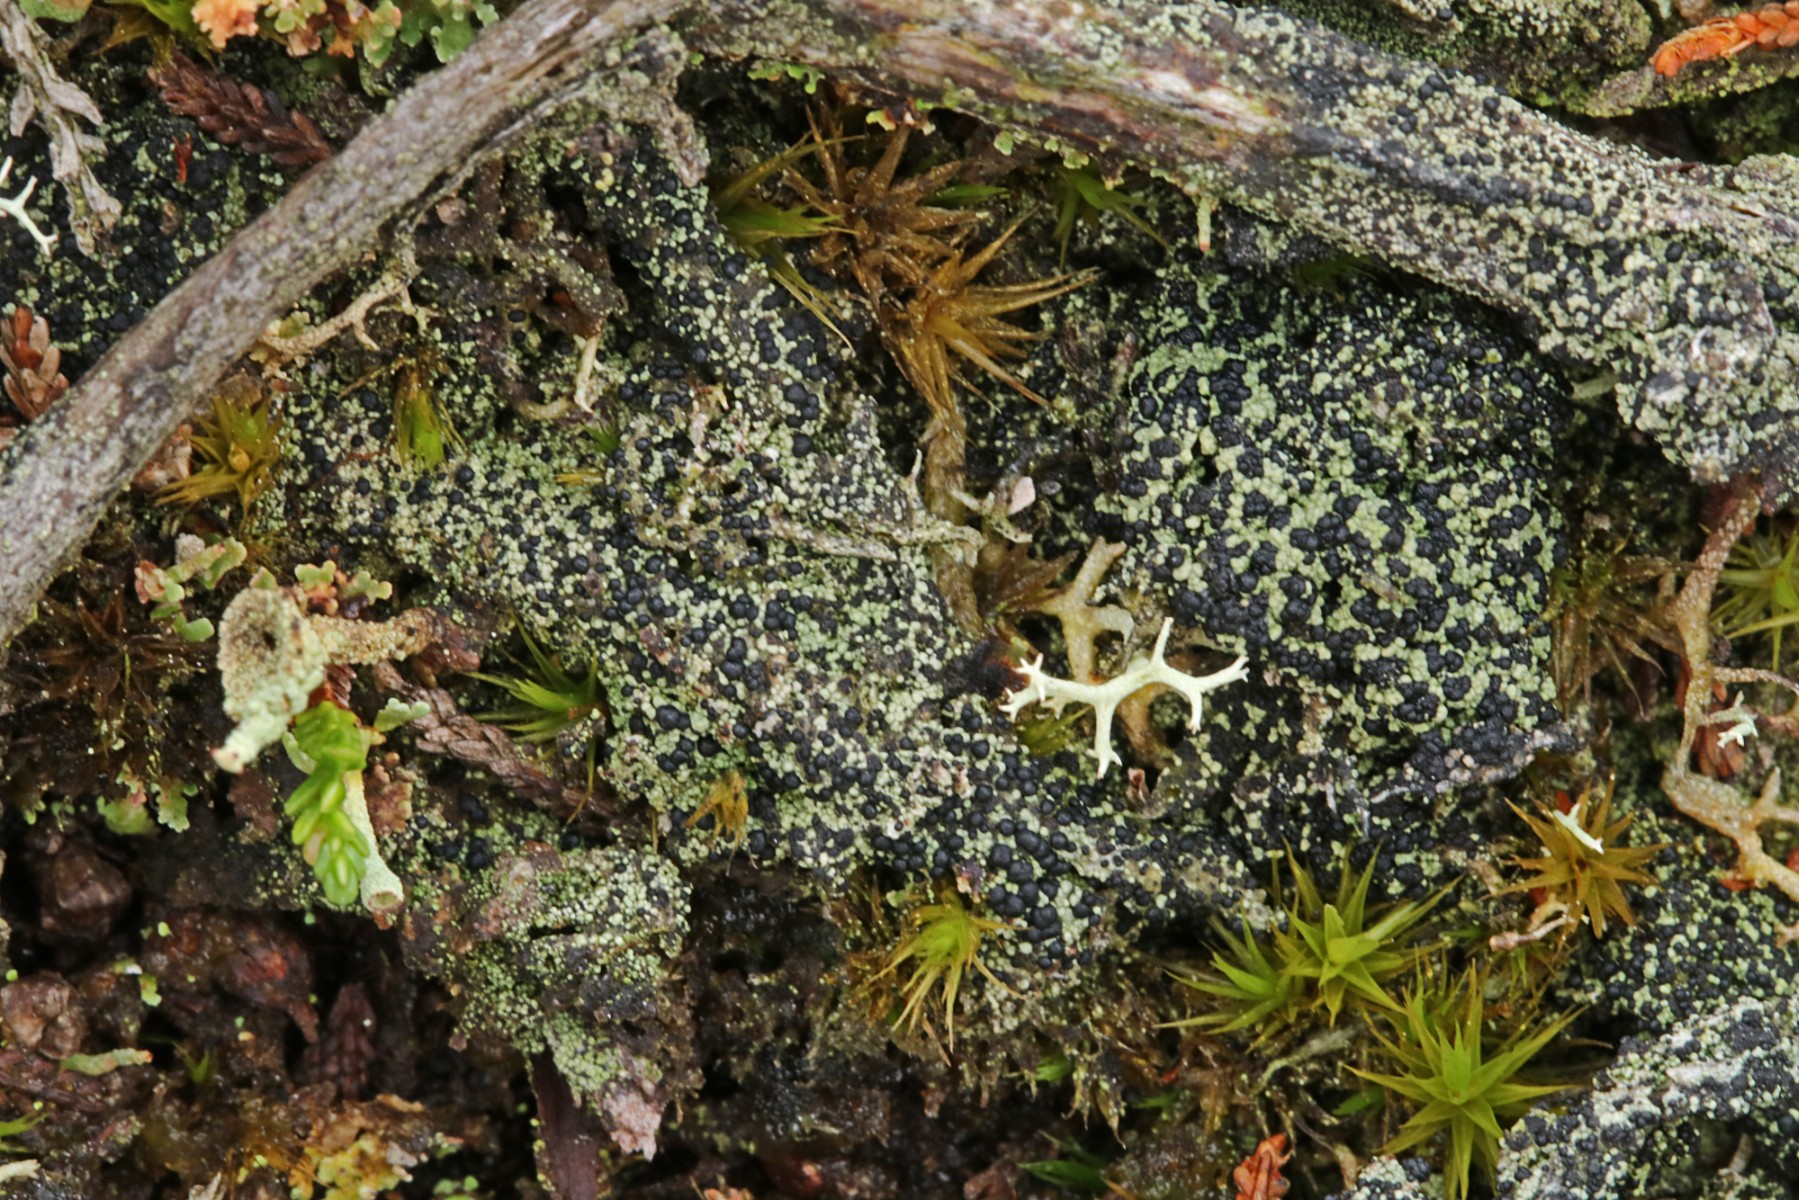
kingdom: Fungi
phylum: Ascomycota
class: Lecanoromycetes
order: Lecanorales
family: Byssolomataceae
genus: Micarea
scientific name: Micarea lignaria
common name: tørve-knaplav
